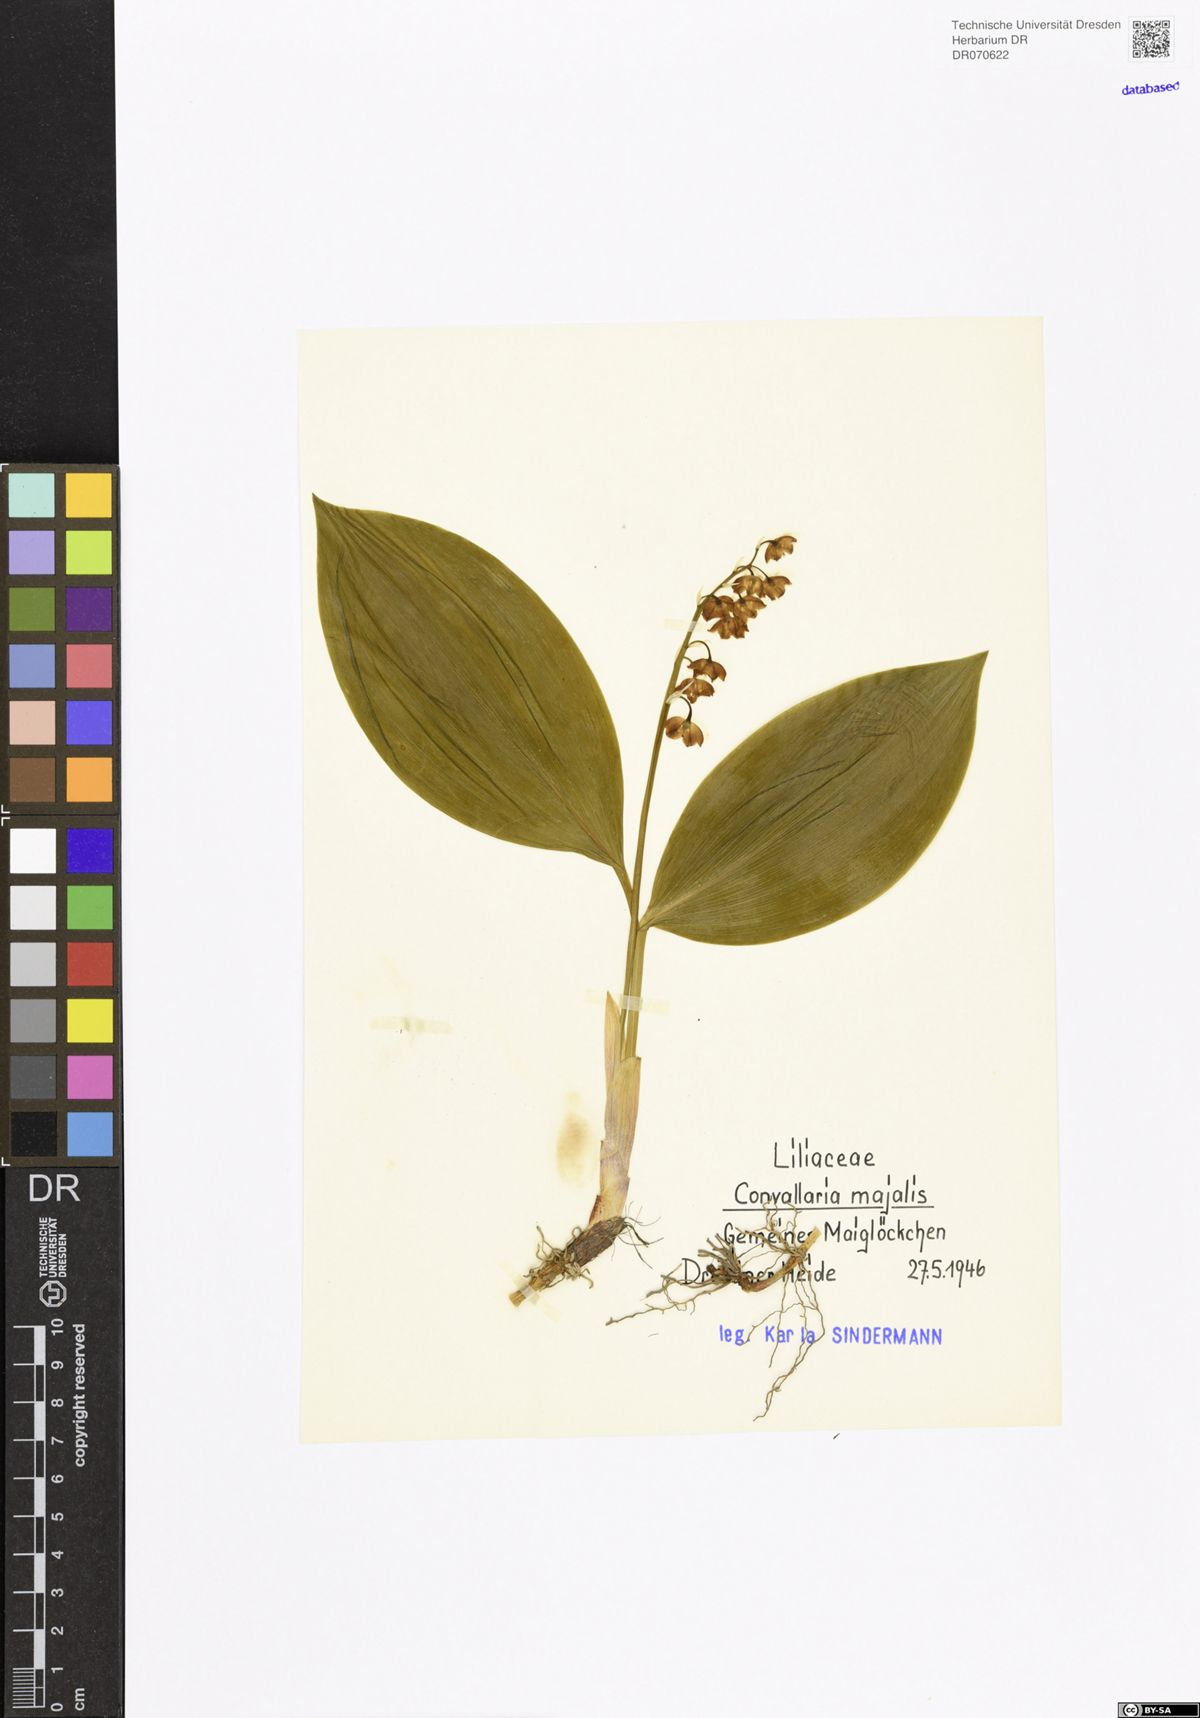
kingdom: Plantae
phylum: Tracheophyta
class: Liliopsida
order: Asparagales
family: Asparagaceae
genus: Convallaria
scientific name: Convallaria majalis
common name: Lily-of-the-valley
